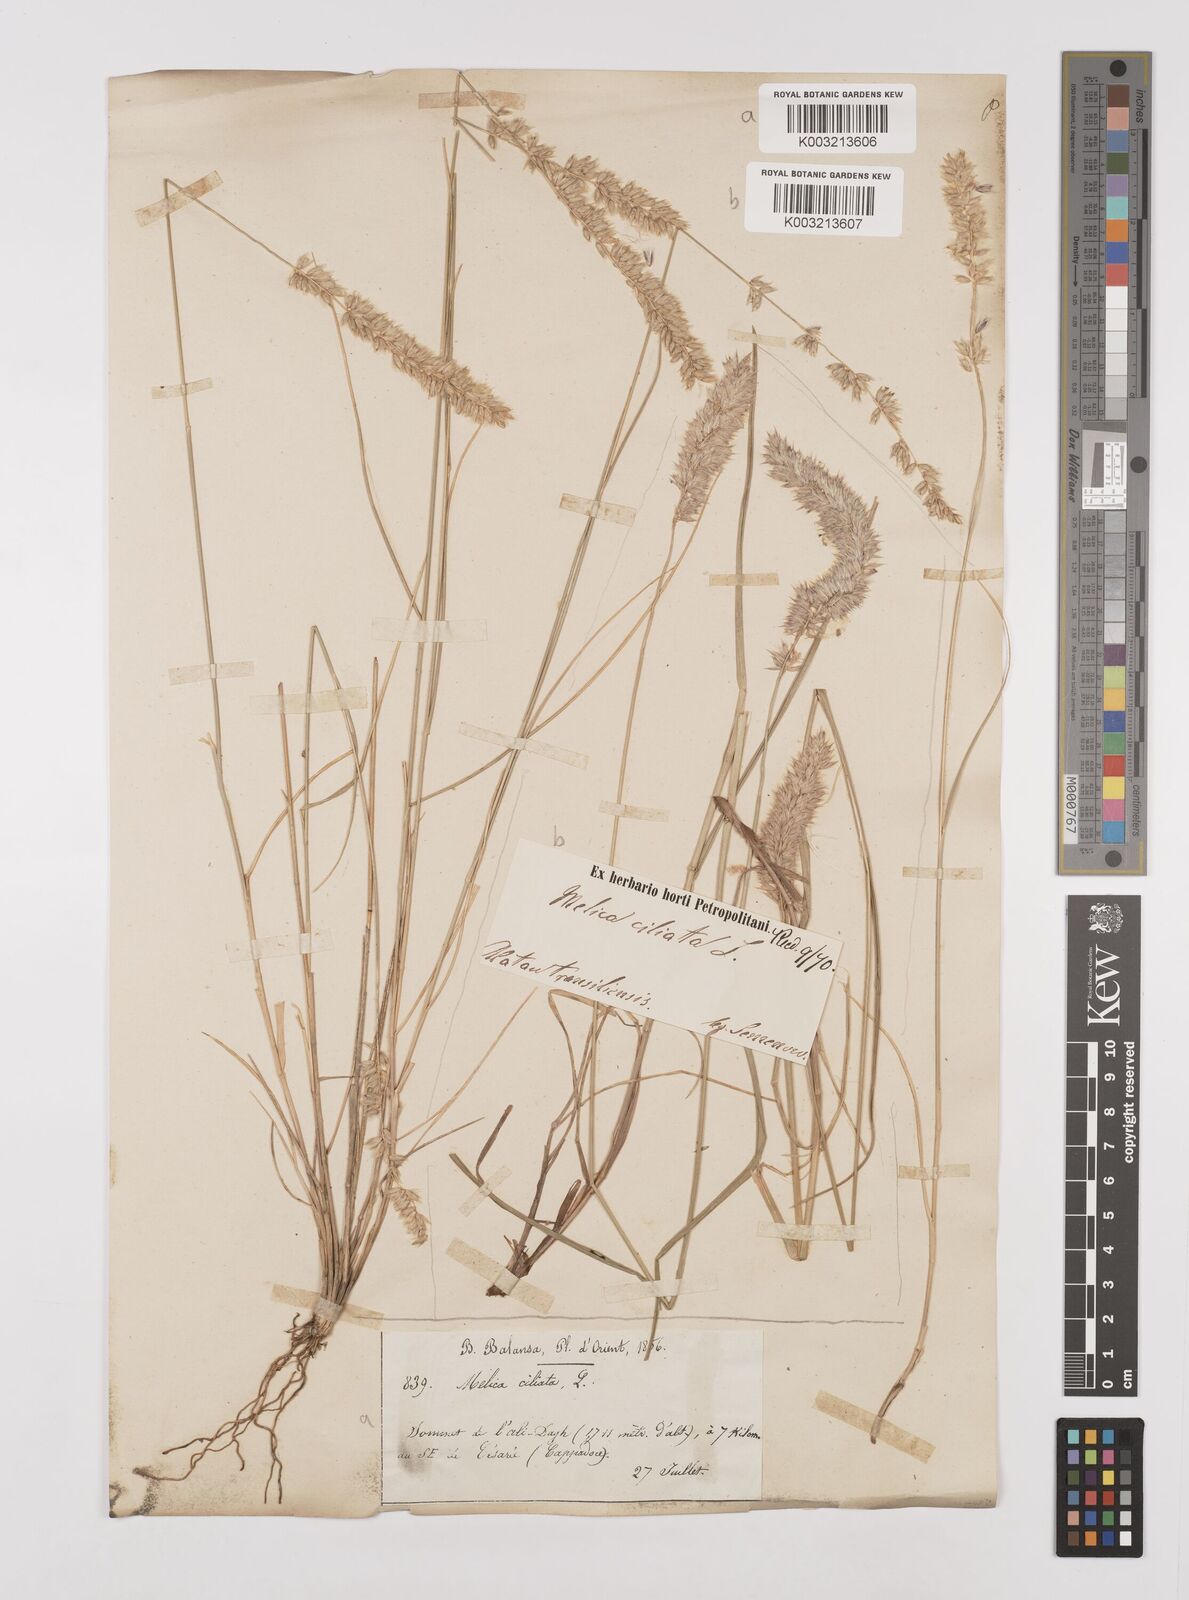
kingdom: Plantae
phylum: Tracheophyta
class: Liliopsida
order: Poales
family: Poaceae
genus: Melica
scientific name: Melica ciliata
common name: Hairy melicgrass
